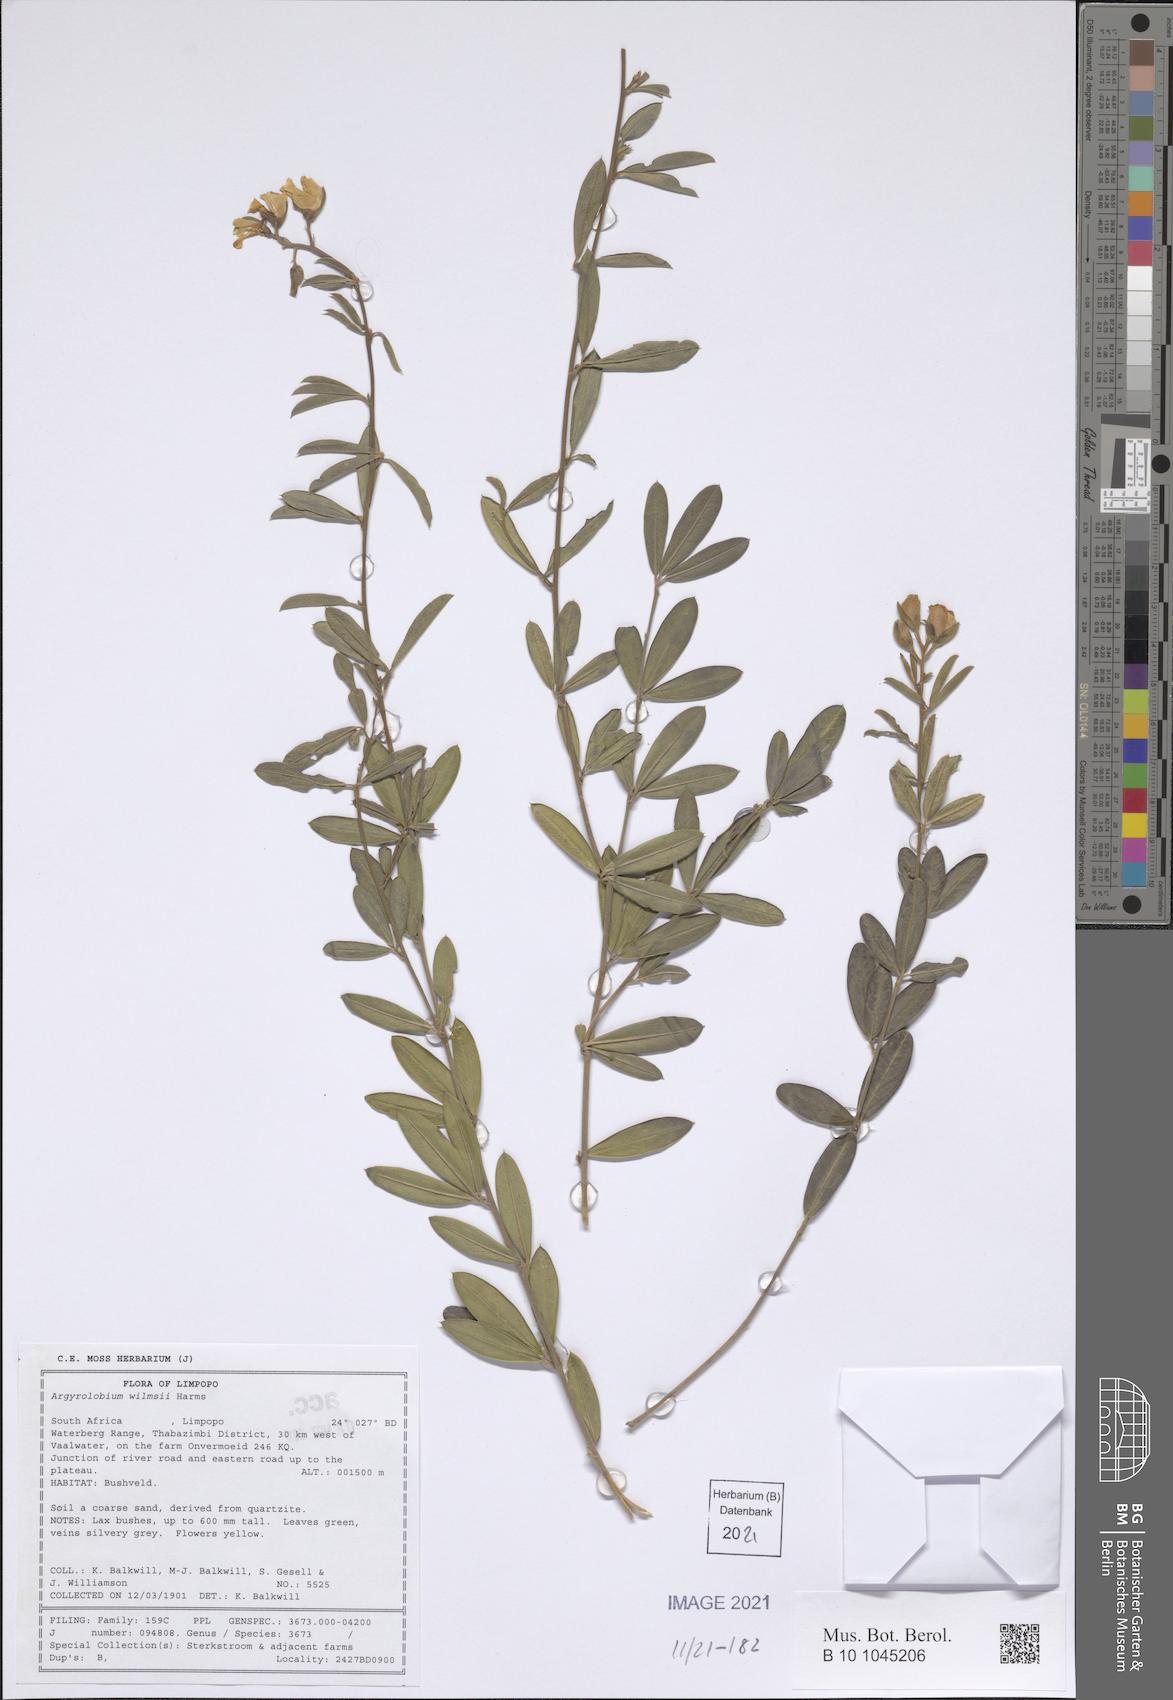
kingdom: Plantae
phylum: Tracheophyta
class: Magnoliopsida
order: Fabales
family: Fabaceae
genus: Argyrolobium
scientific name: Argyrolobium wilmsii
